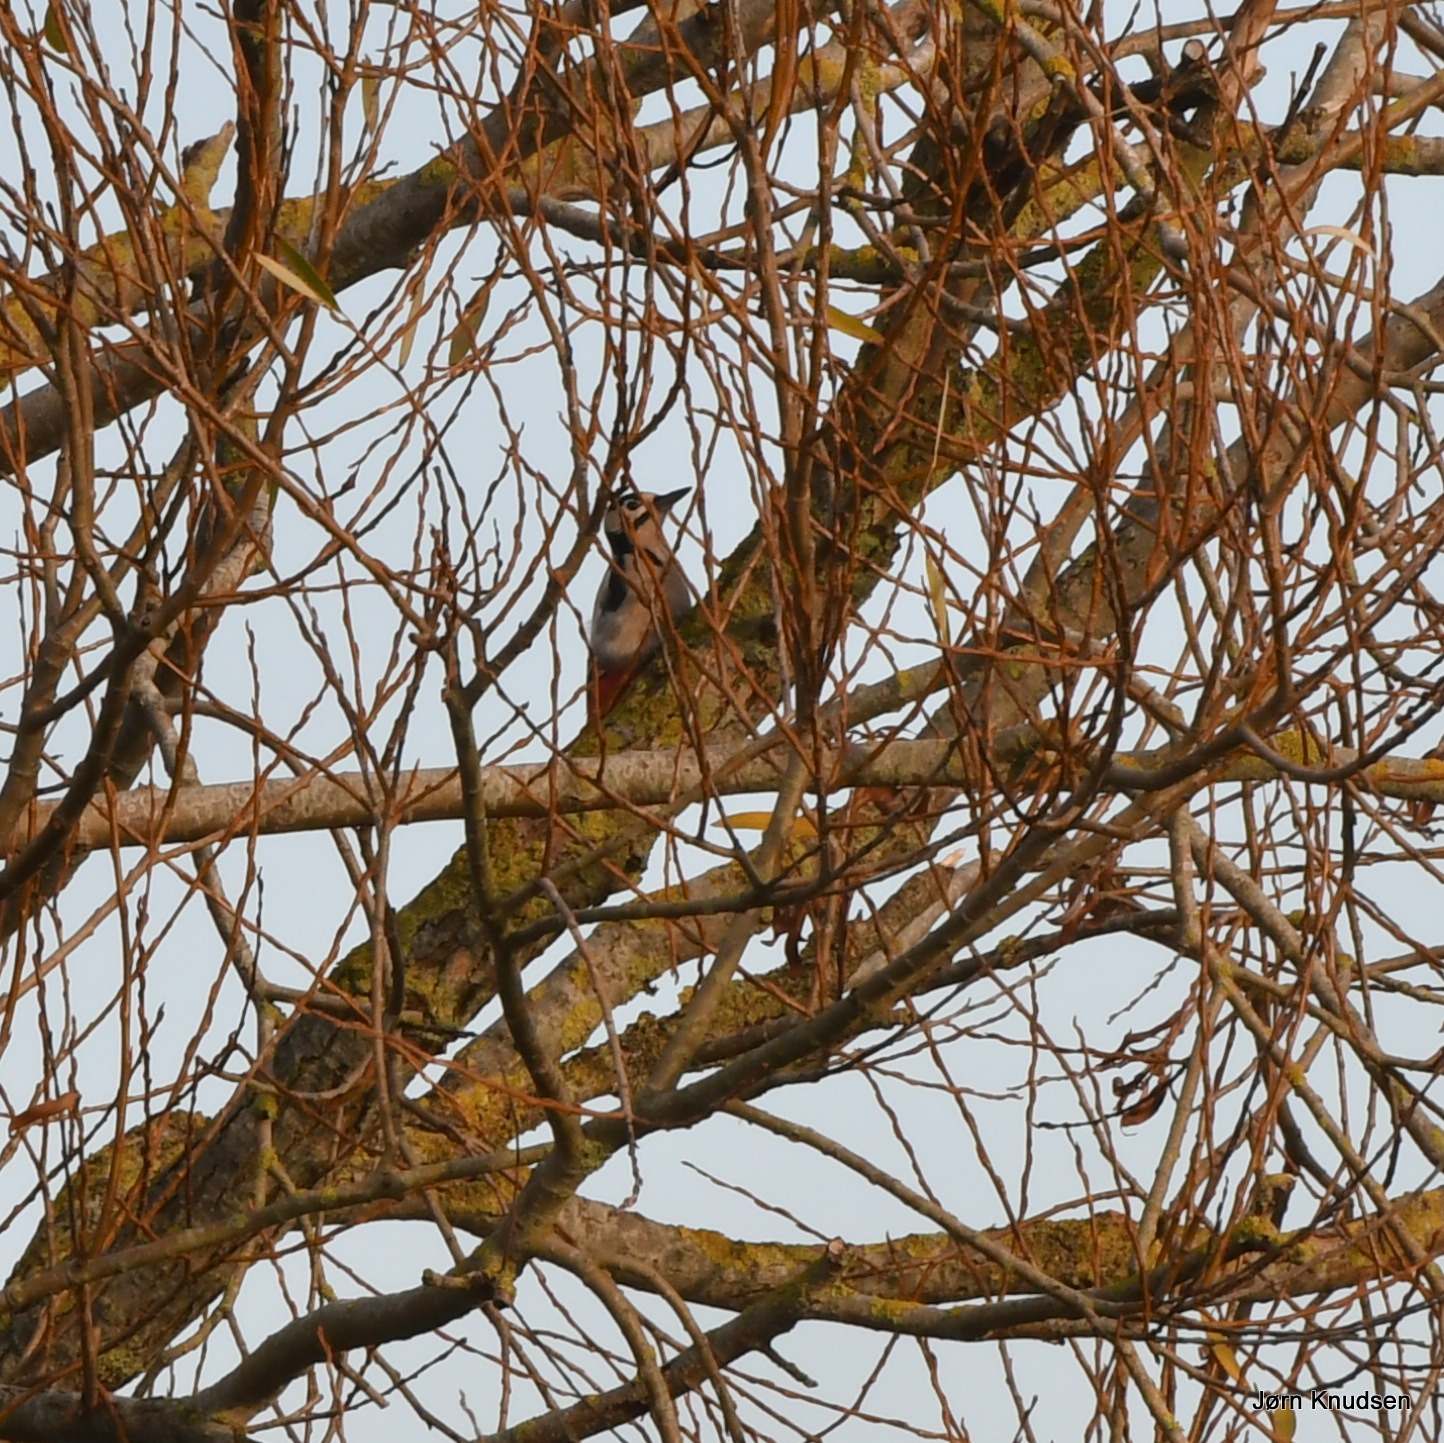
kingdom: Animalia
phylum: Chordata
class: Aves
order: Piciformes
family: Picidae
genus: Dendrocopos
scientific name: Dendrocopos major
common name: Stor flagspætte
